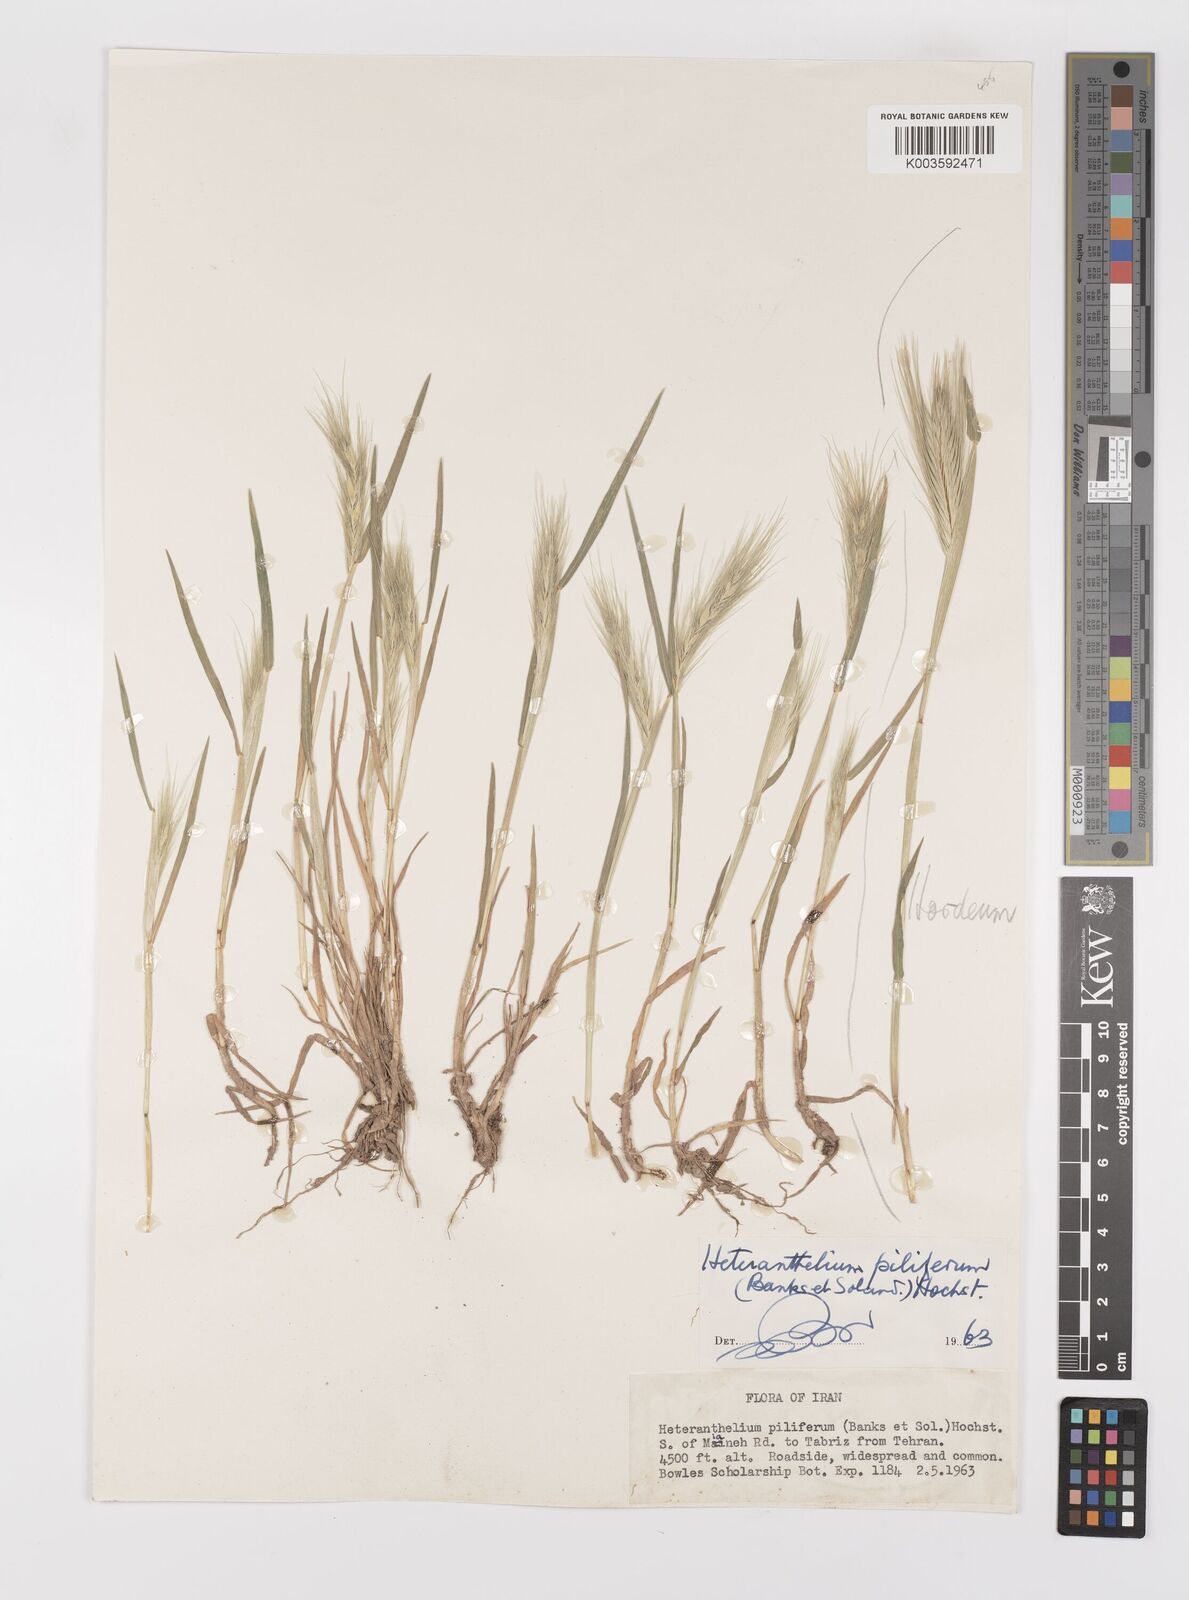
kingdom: Plantae
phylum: Tracheophyta
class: Liliopsida
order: Poales
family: Poaceae
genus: Heteranthelium
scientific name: Heteranthelium piliferum
